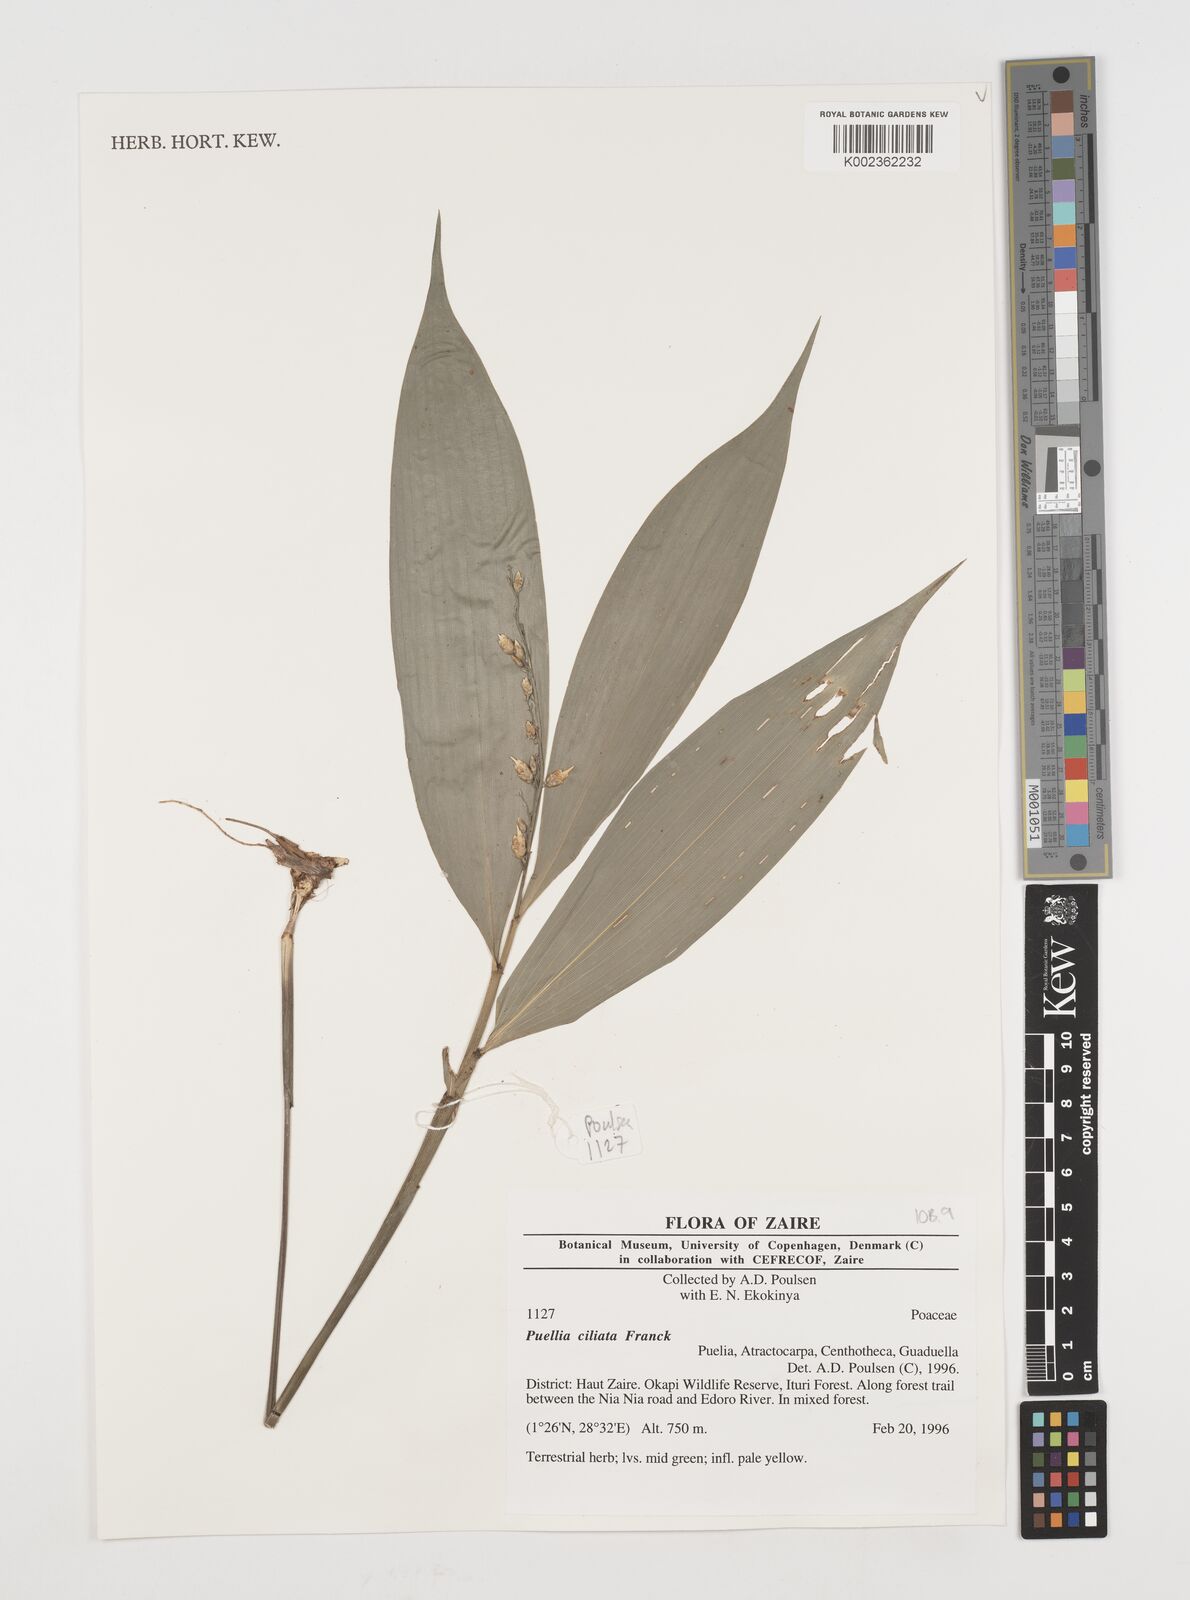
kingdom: Plantae
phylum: Tracheophyta
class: Liliopsida
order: Poales
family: Poaceae
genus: Puelia
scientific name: Puelia ciliata
